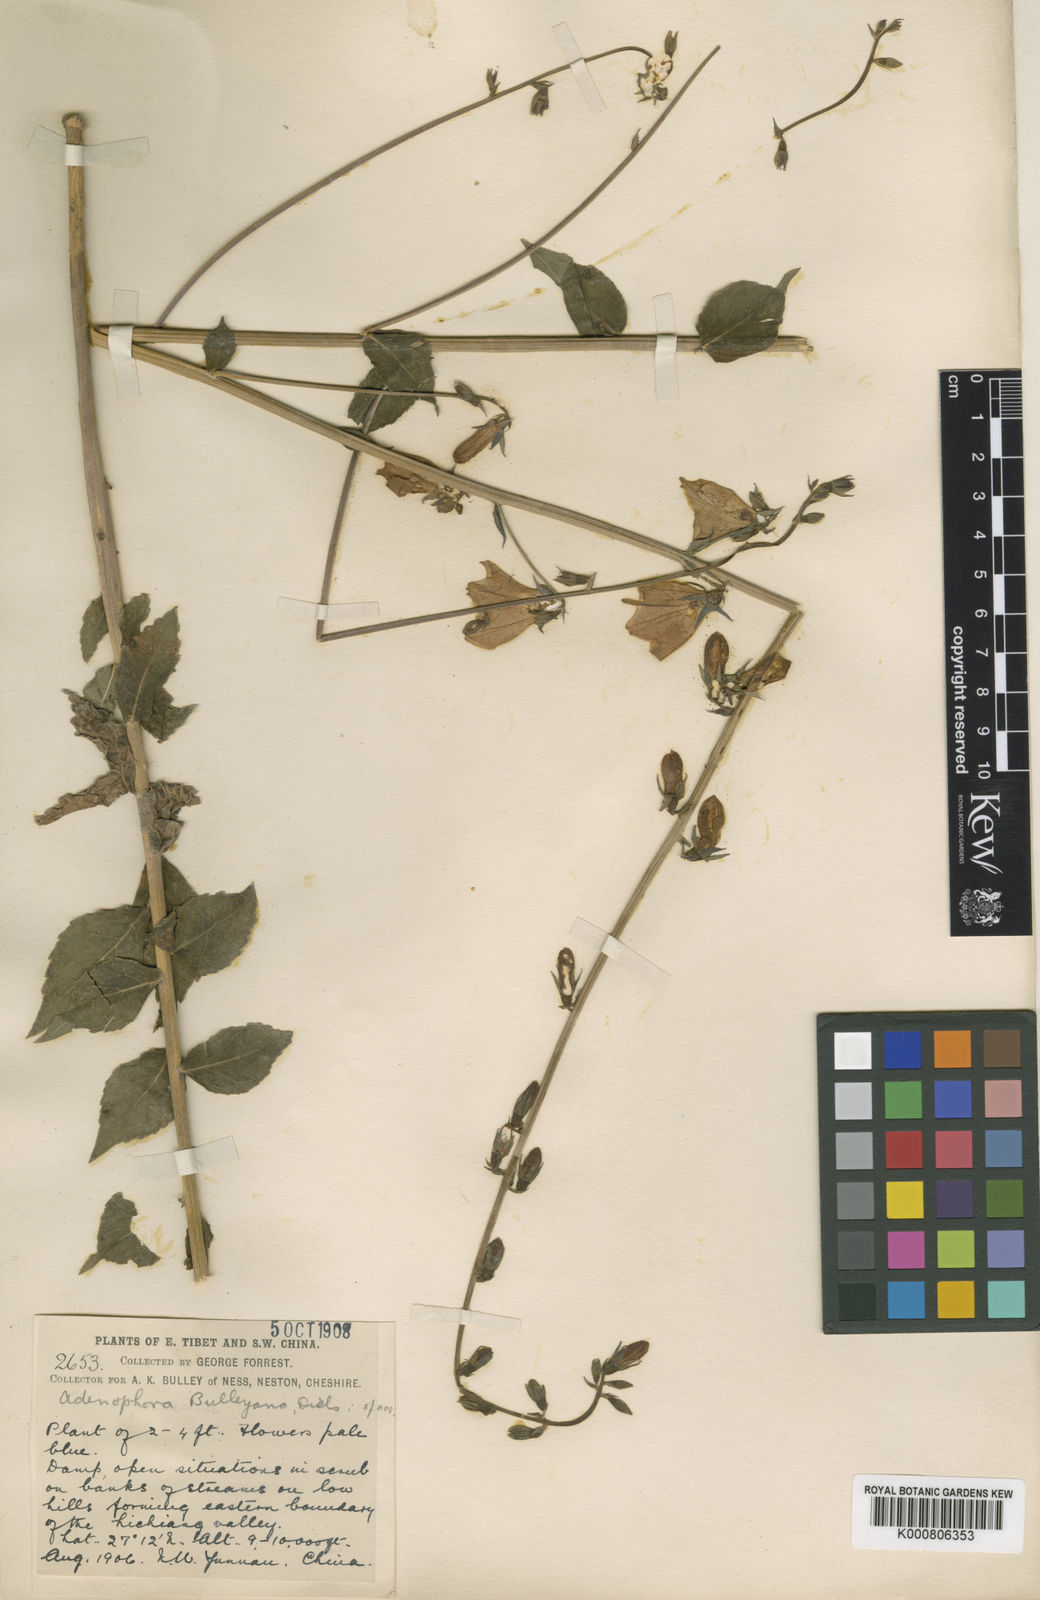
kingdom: Plantae
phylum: Tracheophyta
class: Magnoliopsida
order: Asterales
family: Campanulaceae
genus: Adenophora
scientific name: Adenophora khasiana
